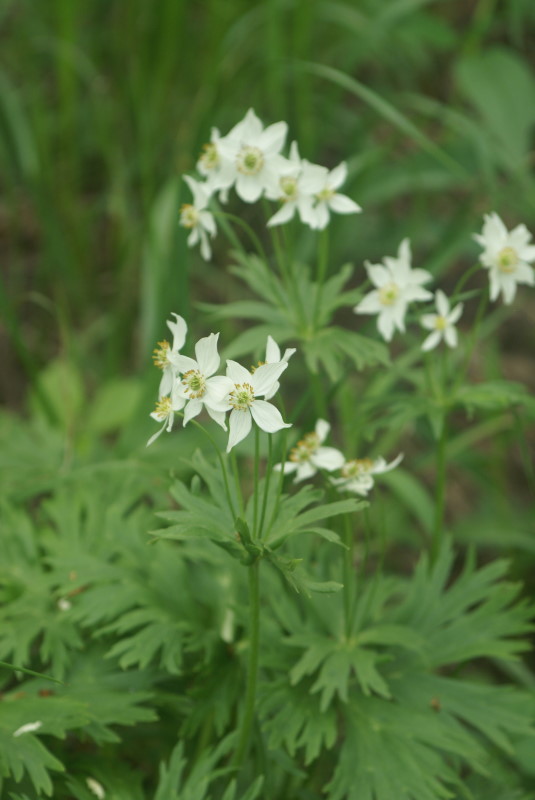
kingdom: Plantae
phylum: Tracheophyta
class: Magnoliopsida
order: Ranunculales
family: Ranunculaceae
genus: Anemonastrum
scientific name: Anemonastrum biarmiense
